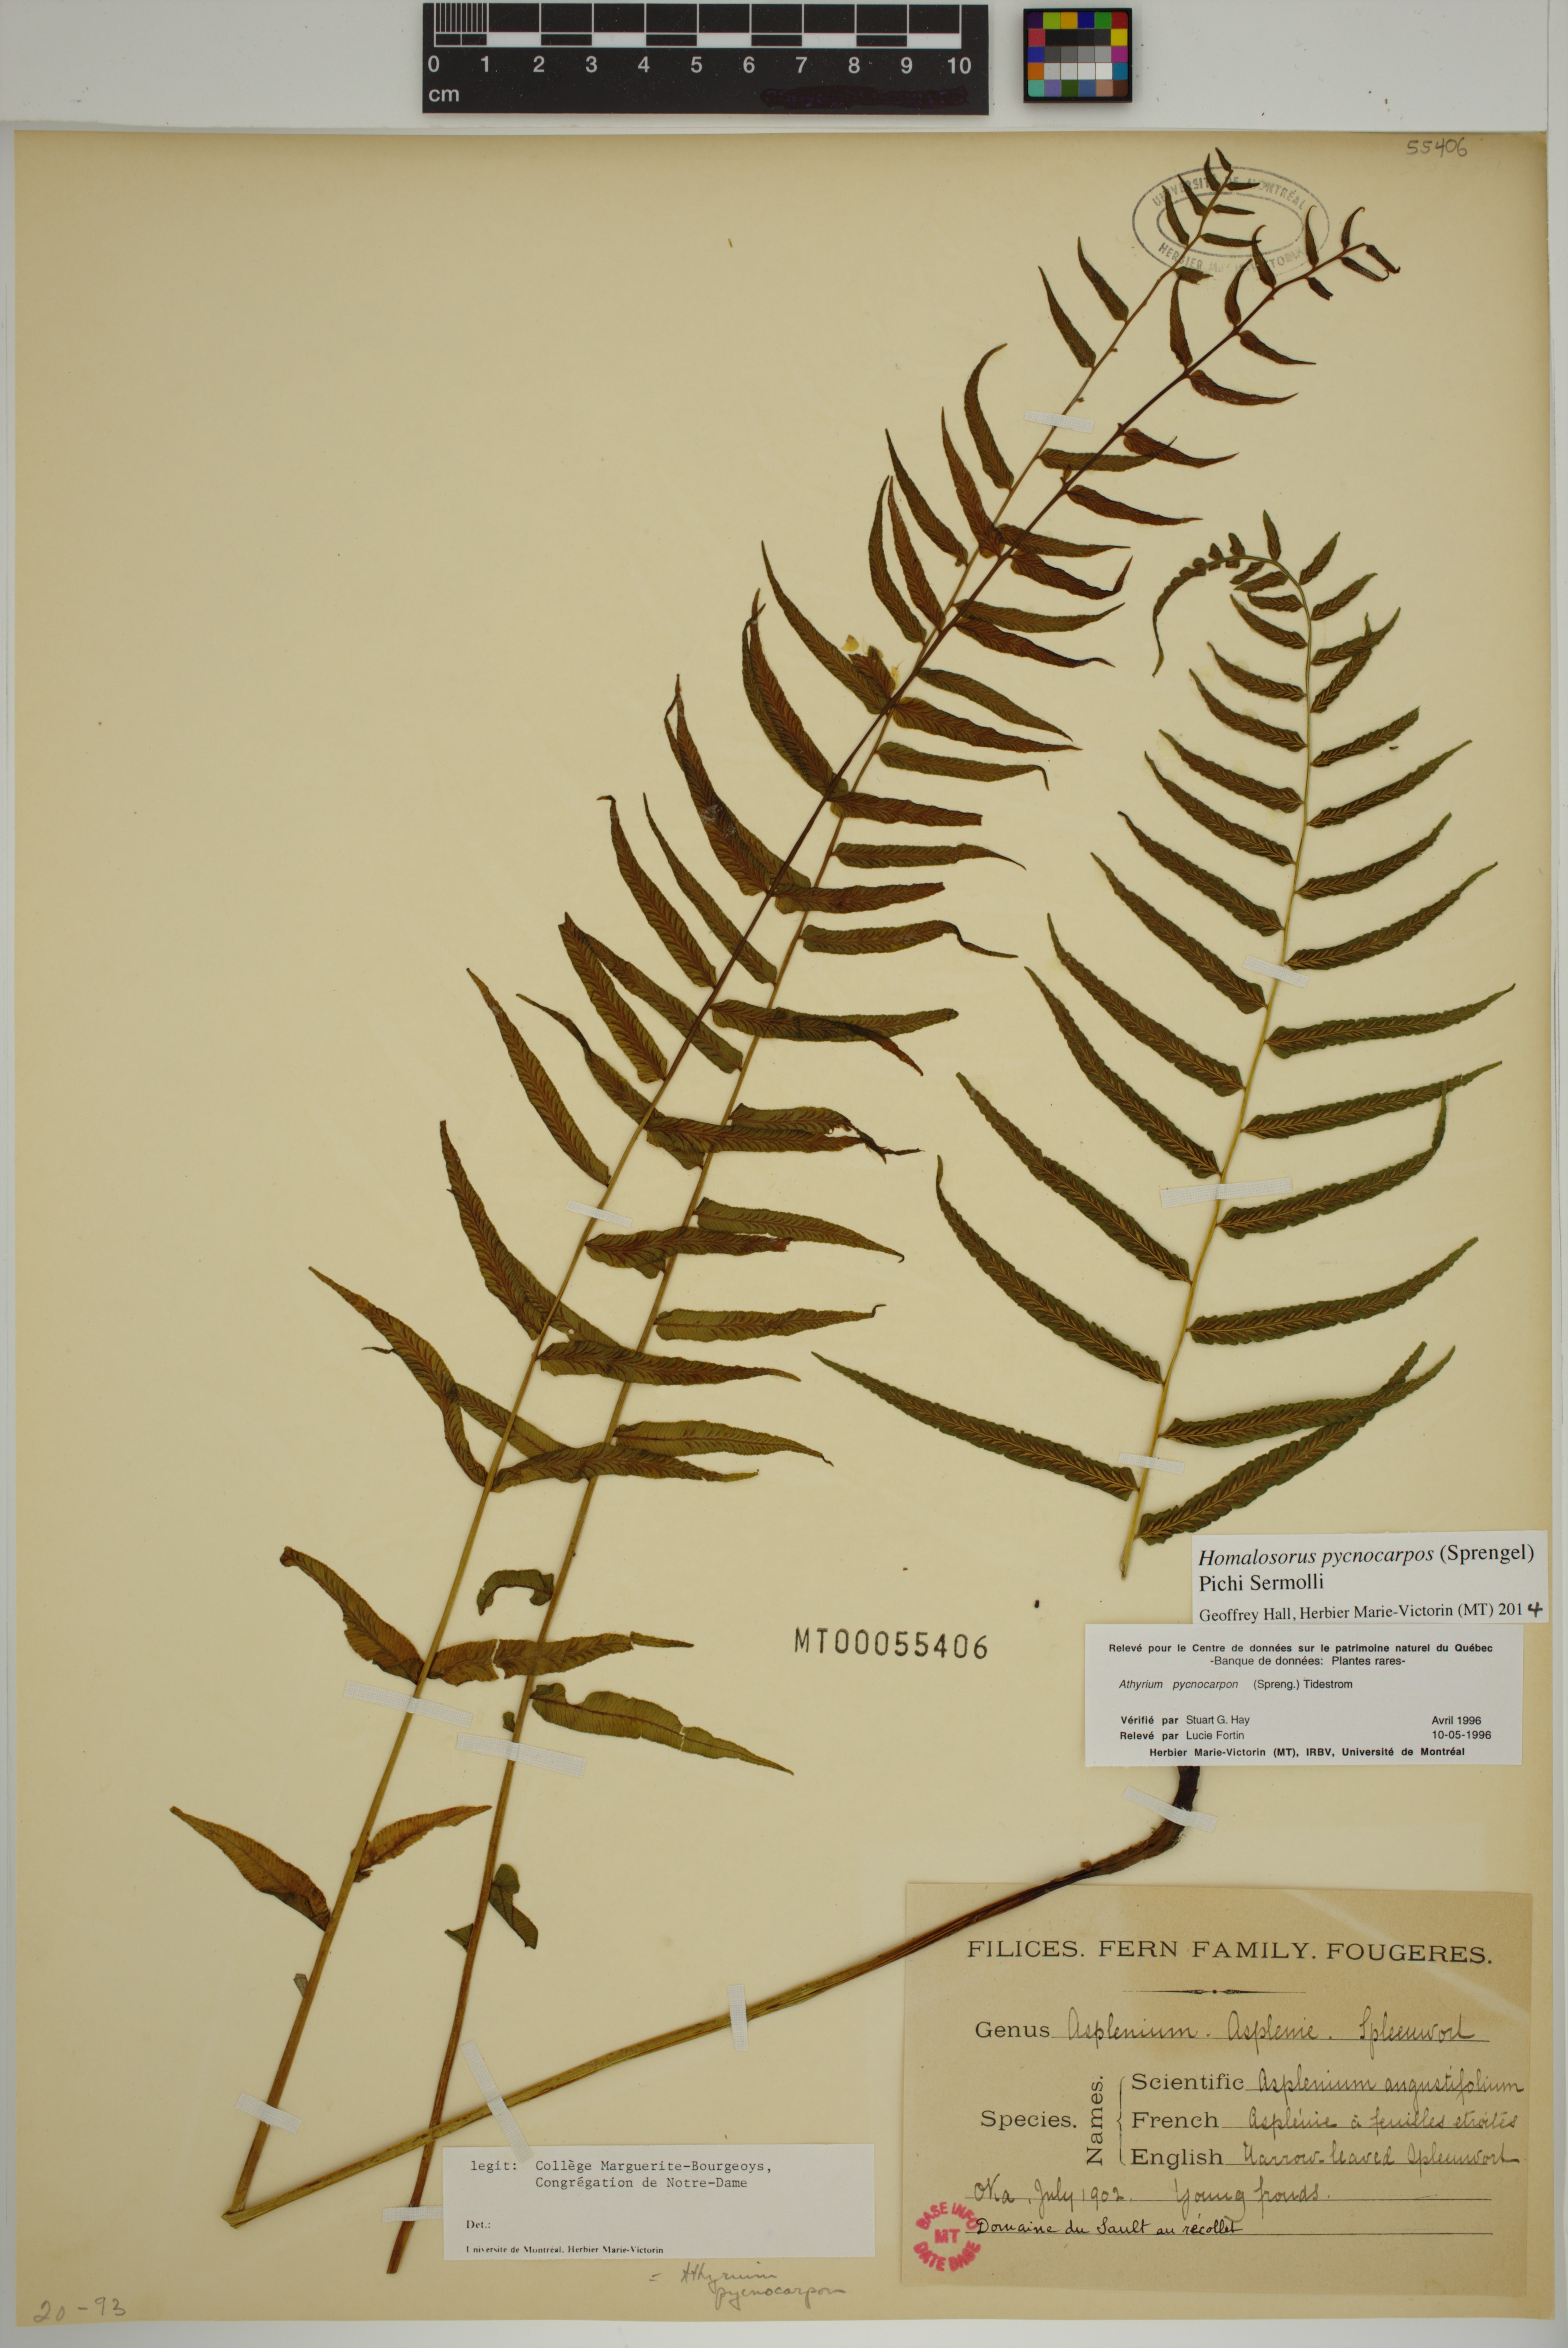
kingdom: Plantae
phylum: Tracheophyta
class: Polypodiopsida
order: Polypodiales
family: Diplaziopsidaceae
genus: Homalosorus
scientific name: Homalosorus pycnocarpos
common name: Glade fern
